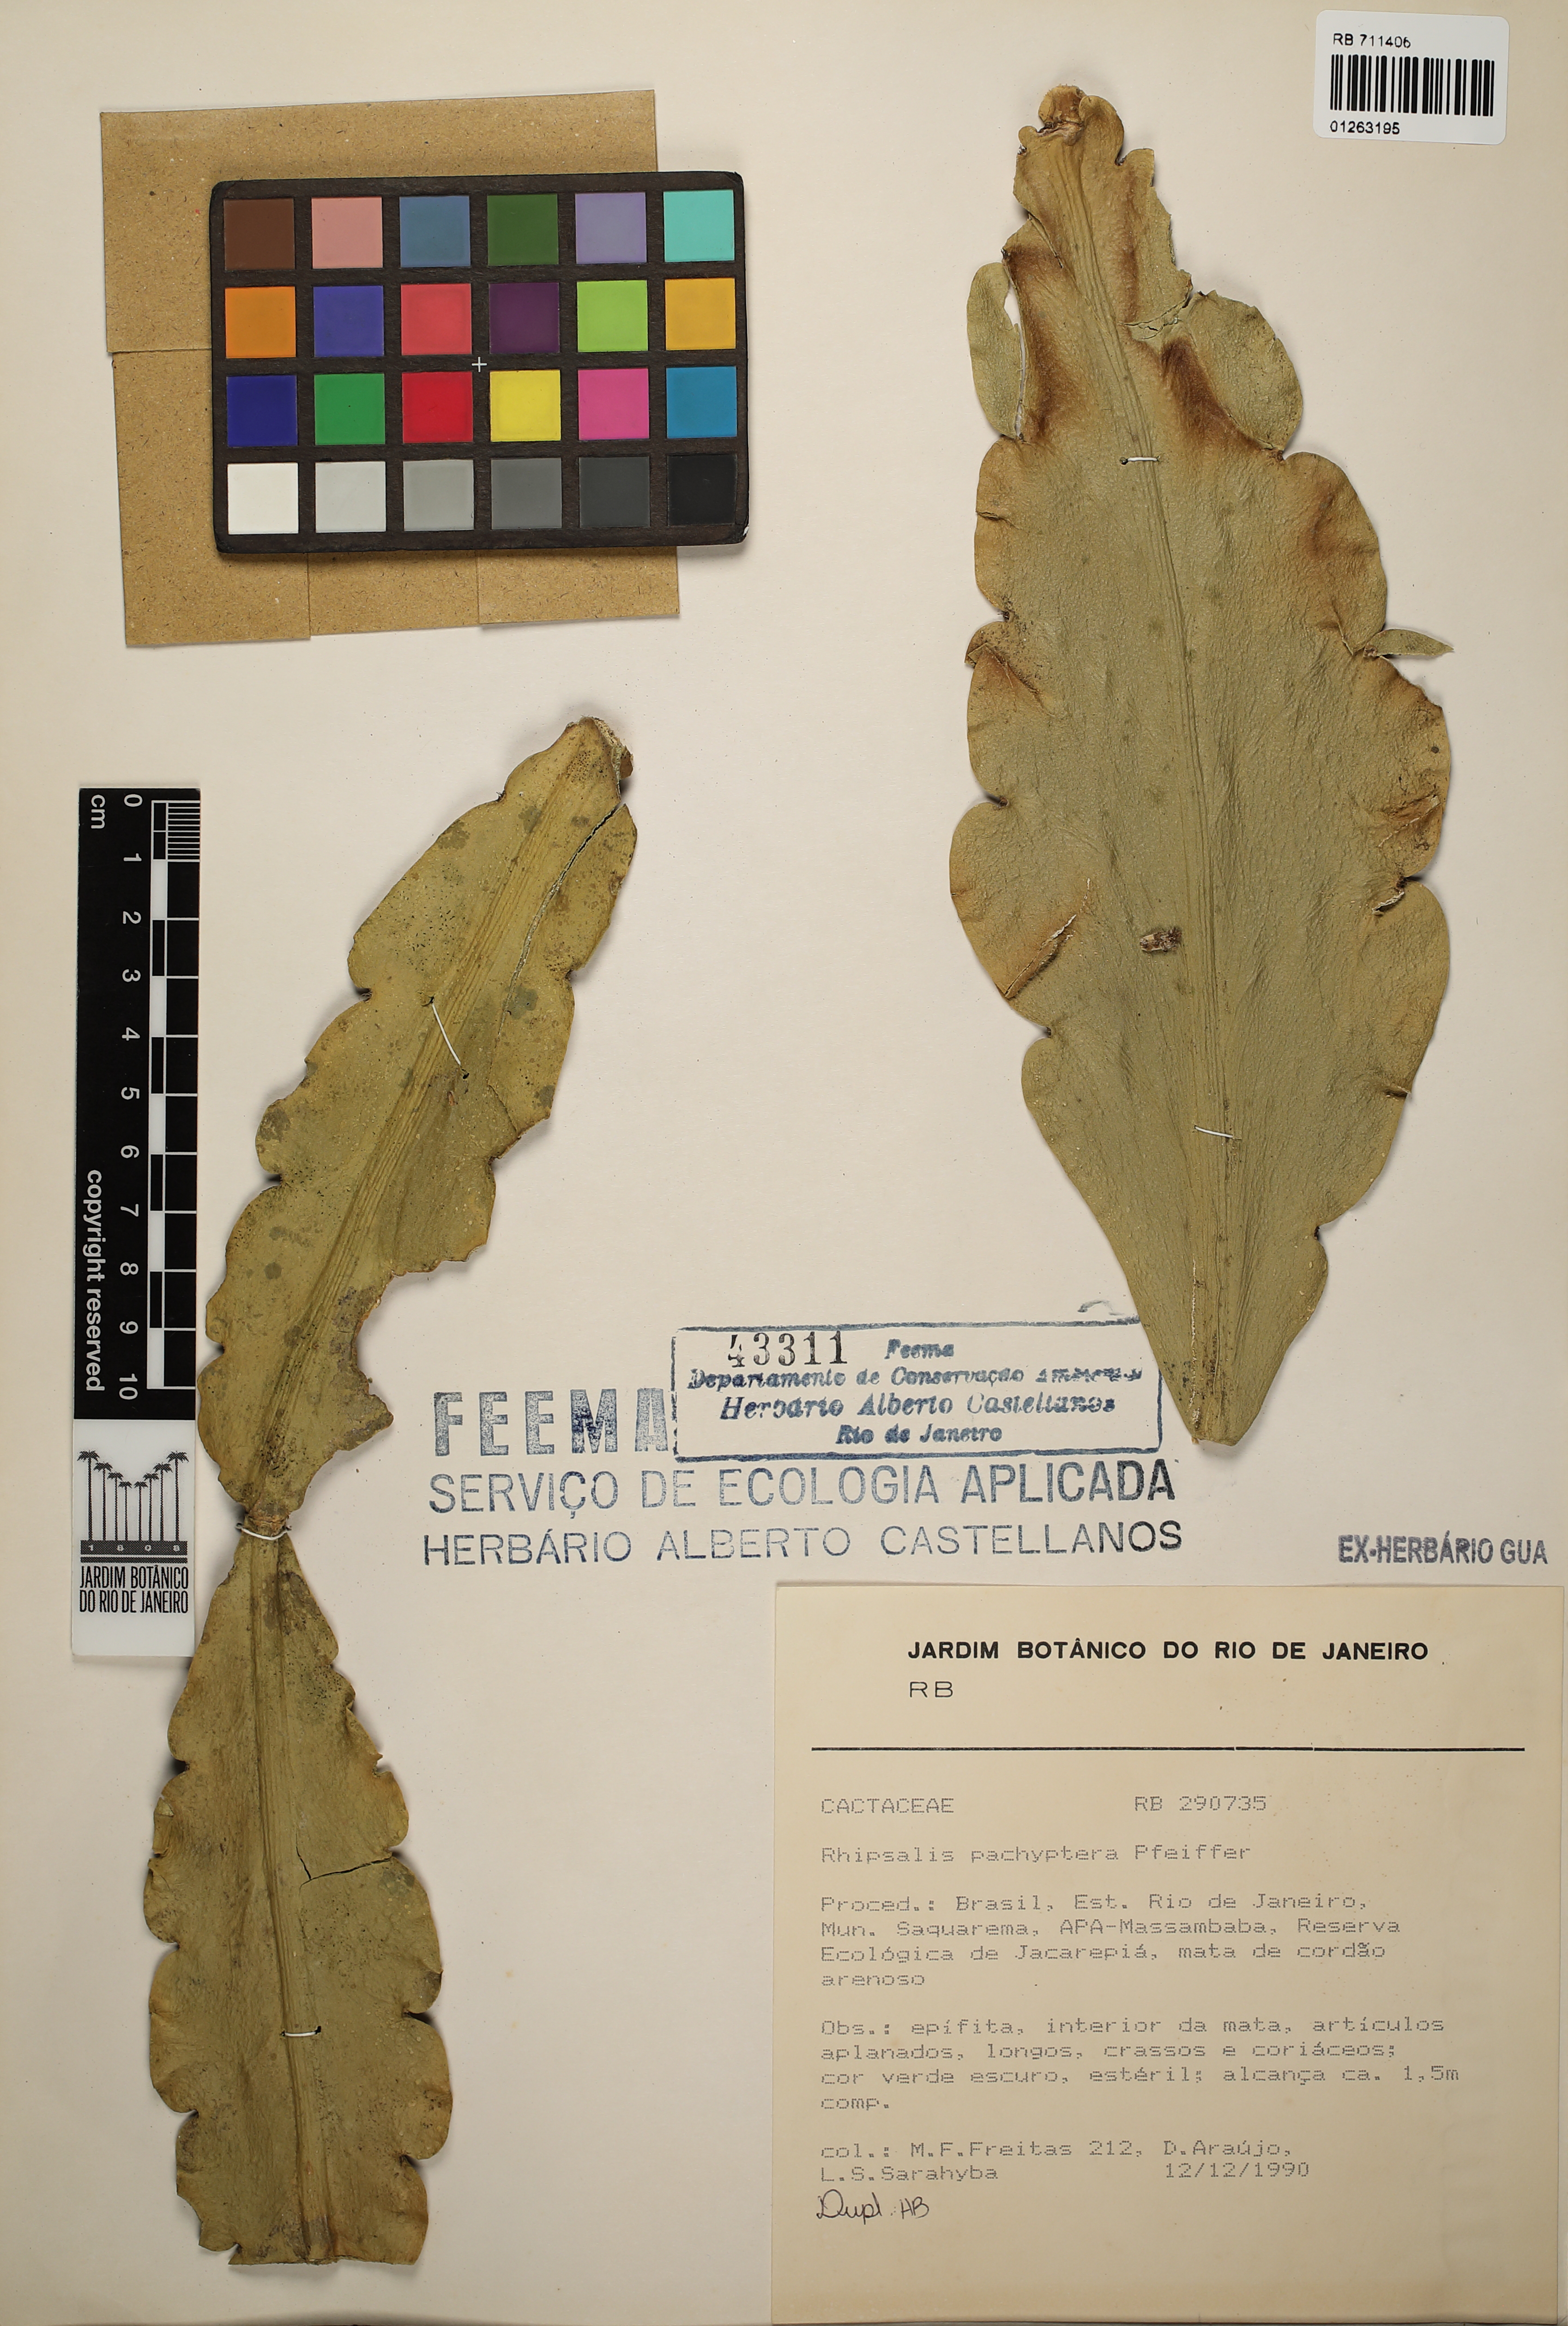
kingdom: Plantae
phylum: Tracheophyta
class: Magnoliopsida
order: Caryophyllales
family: Cactaceae
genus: Rhipsalis
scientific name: Rhipsalis pachyptera
